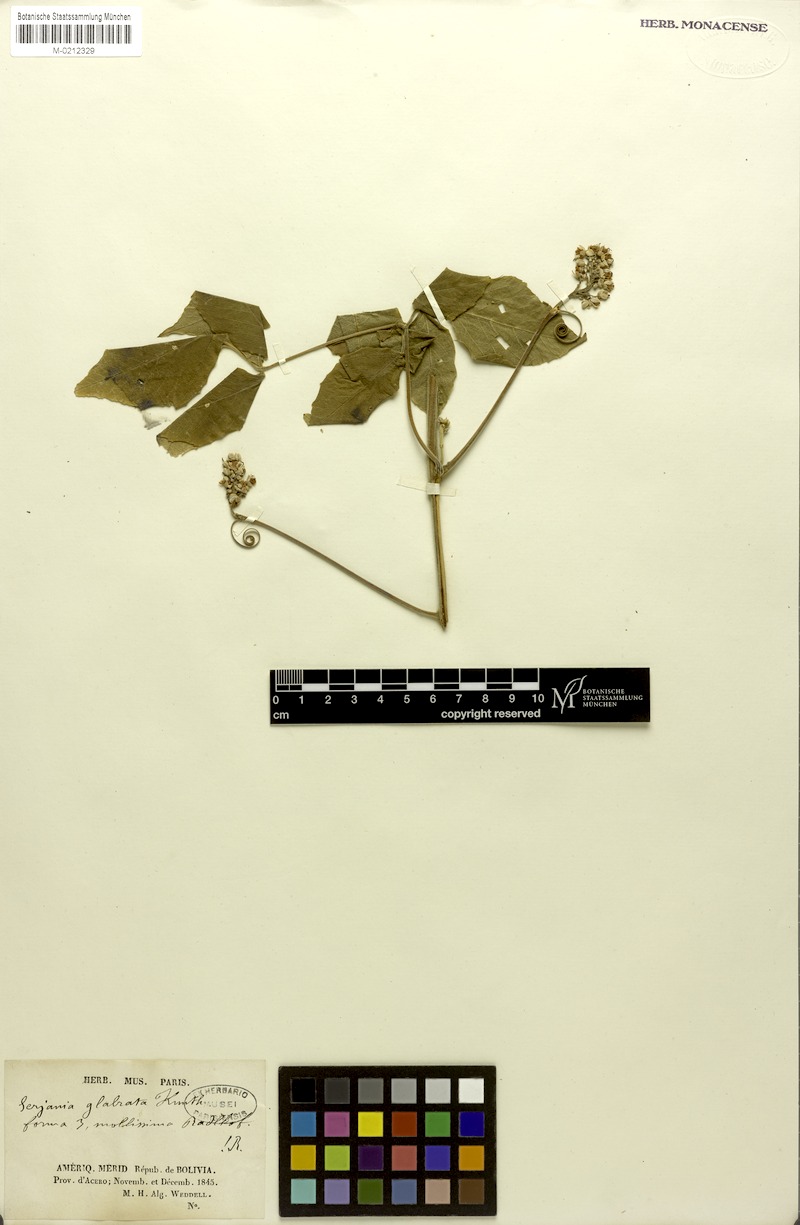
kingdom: Plantae
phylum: Tracheophyta
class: Magnoliopsida
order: Sapindales
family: Sapindaceae
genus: Serjania
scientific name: Serjania glabrata
